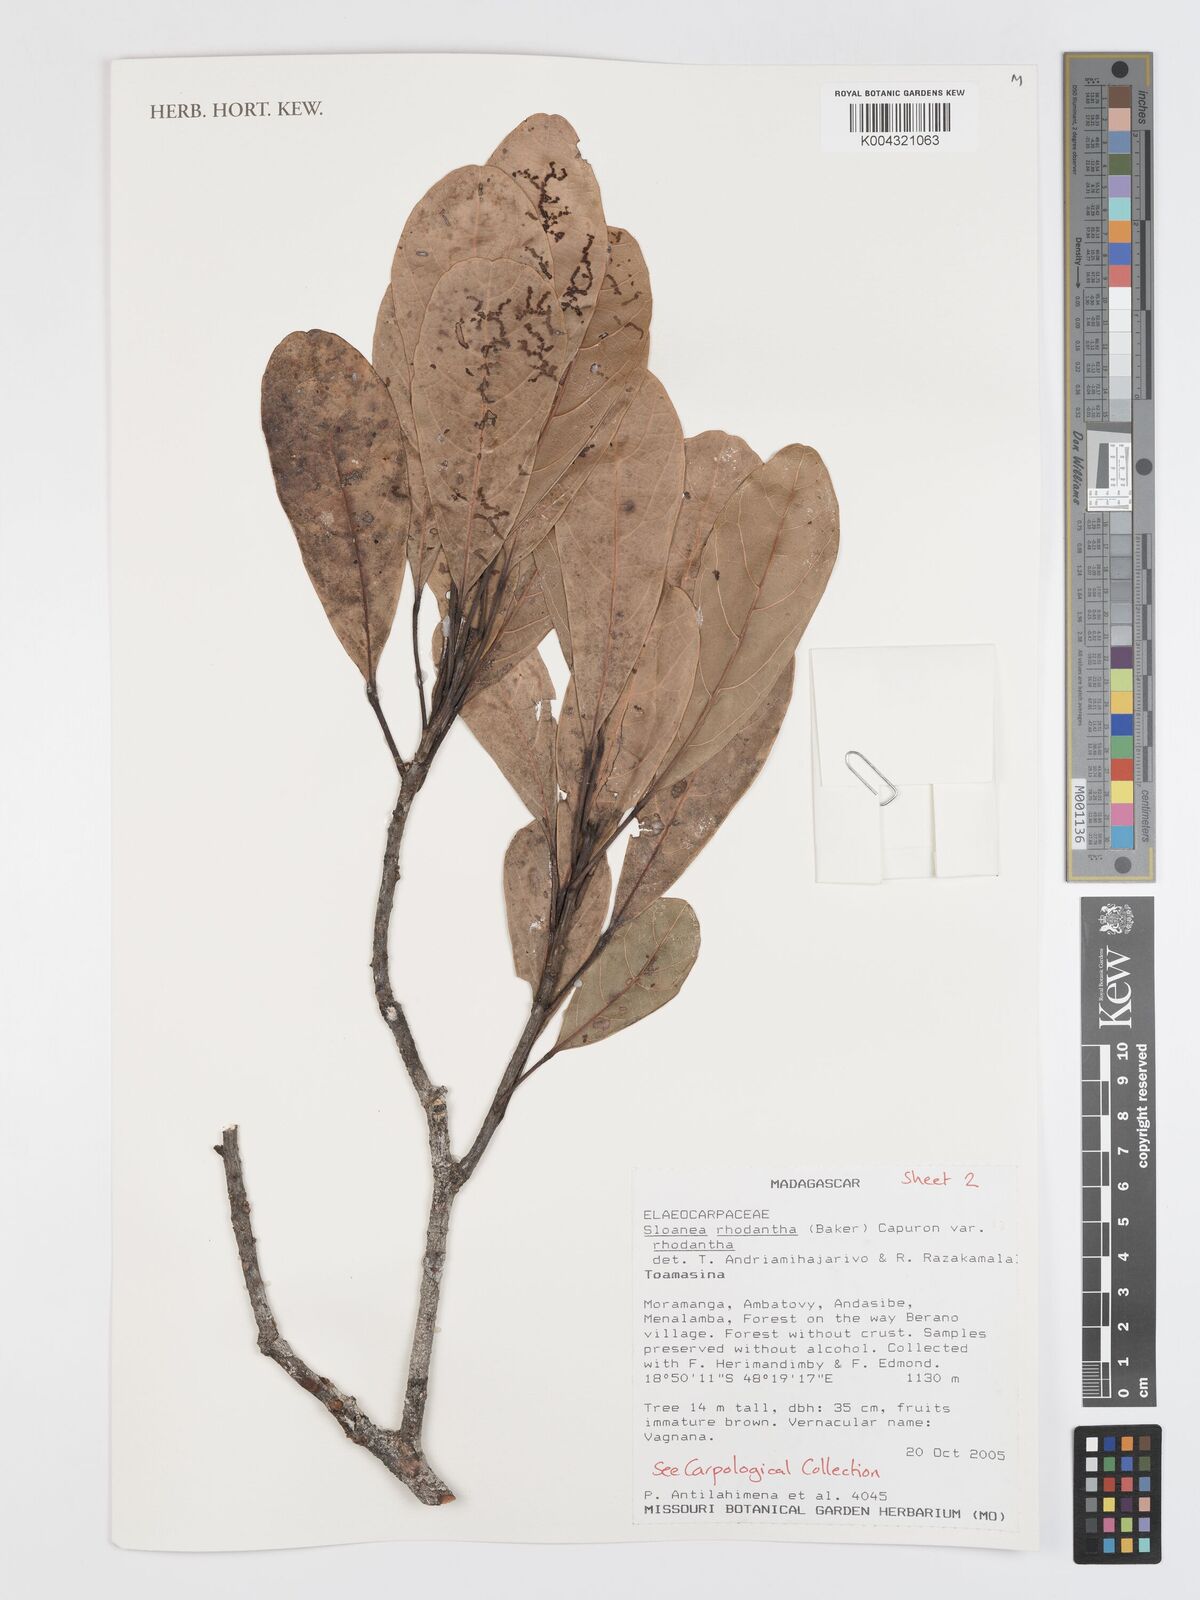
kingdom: Plantae
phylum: Tracheophyta
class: Magnoliopsida
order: Oxalidales
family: Elaeocarpaceae
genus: Sloanea
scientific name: Sloanea rhodantha
